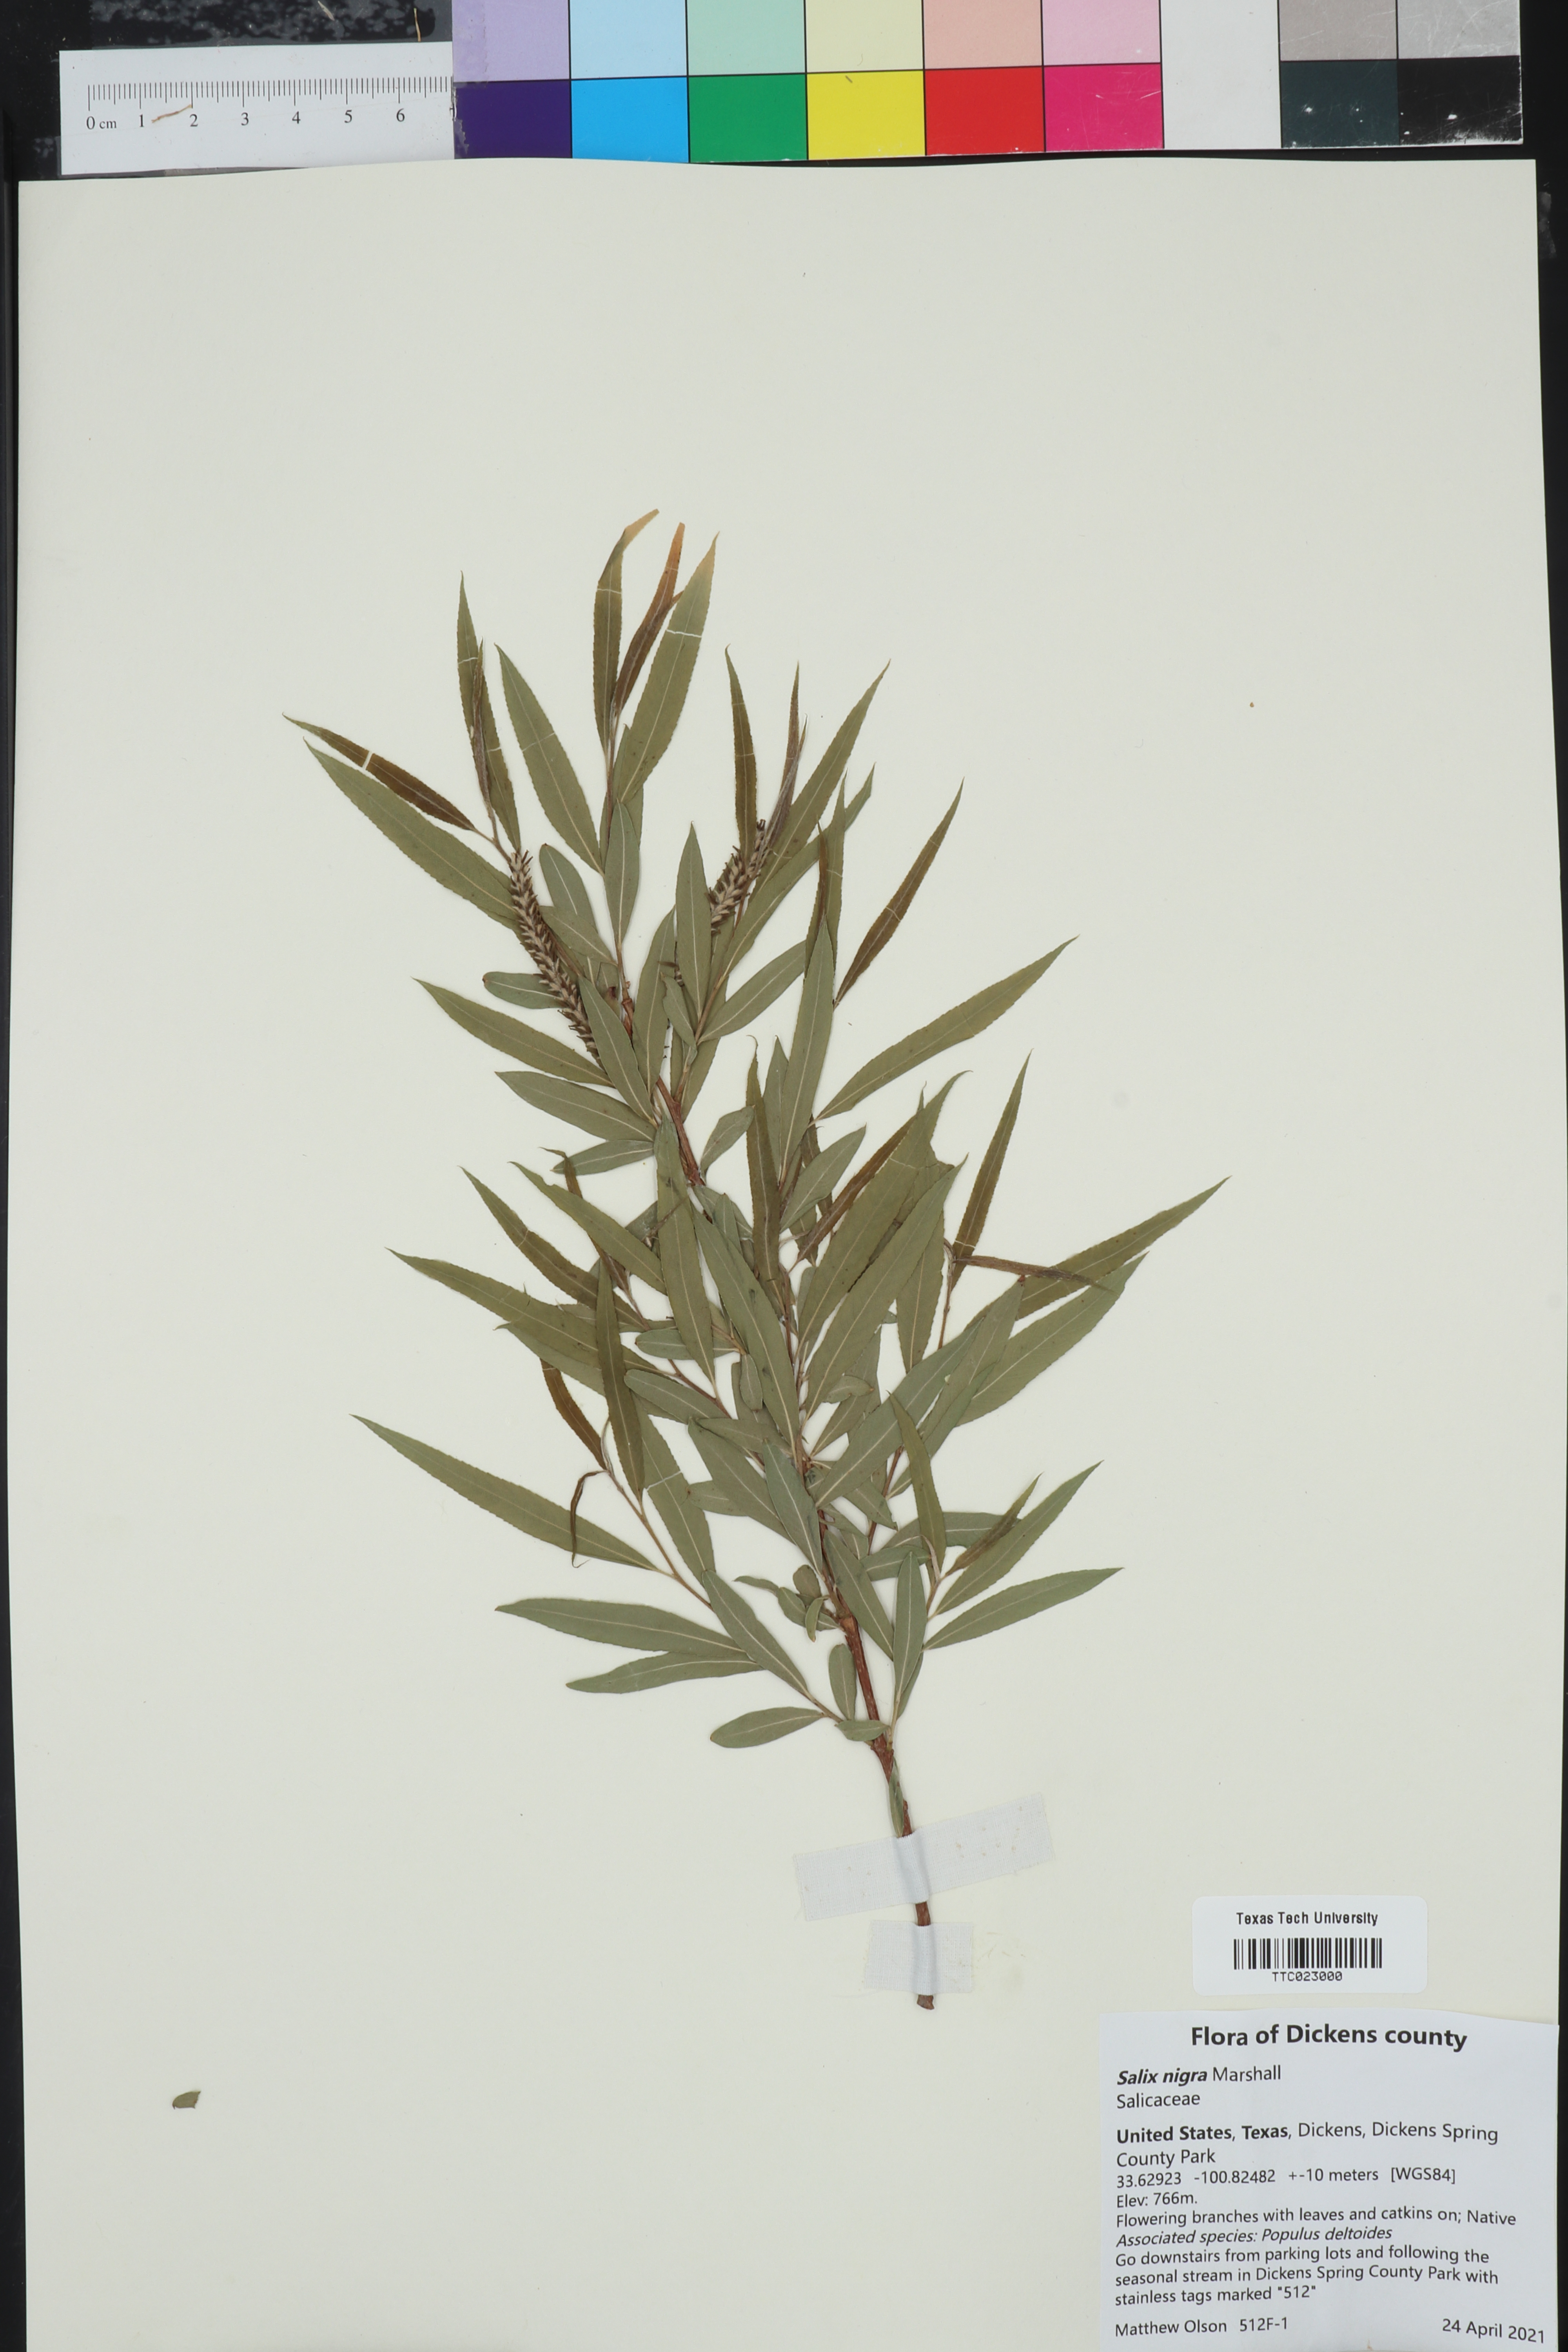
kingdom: Plantae
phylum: Tracheophyta
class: Magnoliopsida
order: Malpighiales
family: Salicaceae
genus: Salix
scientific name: Salix nigra
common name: Black willow
